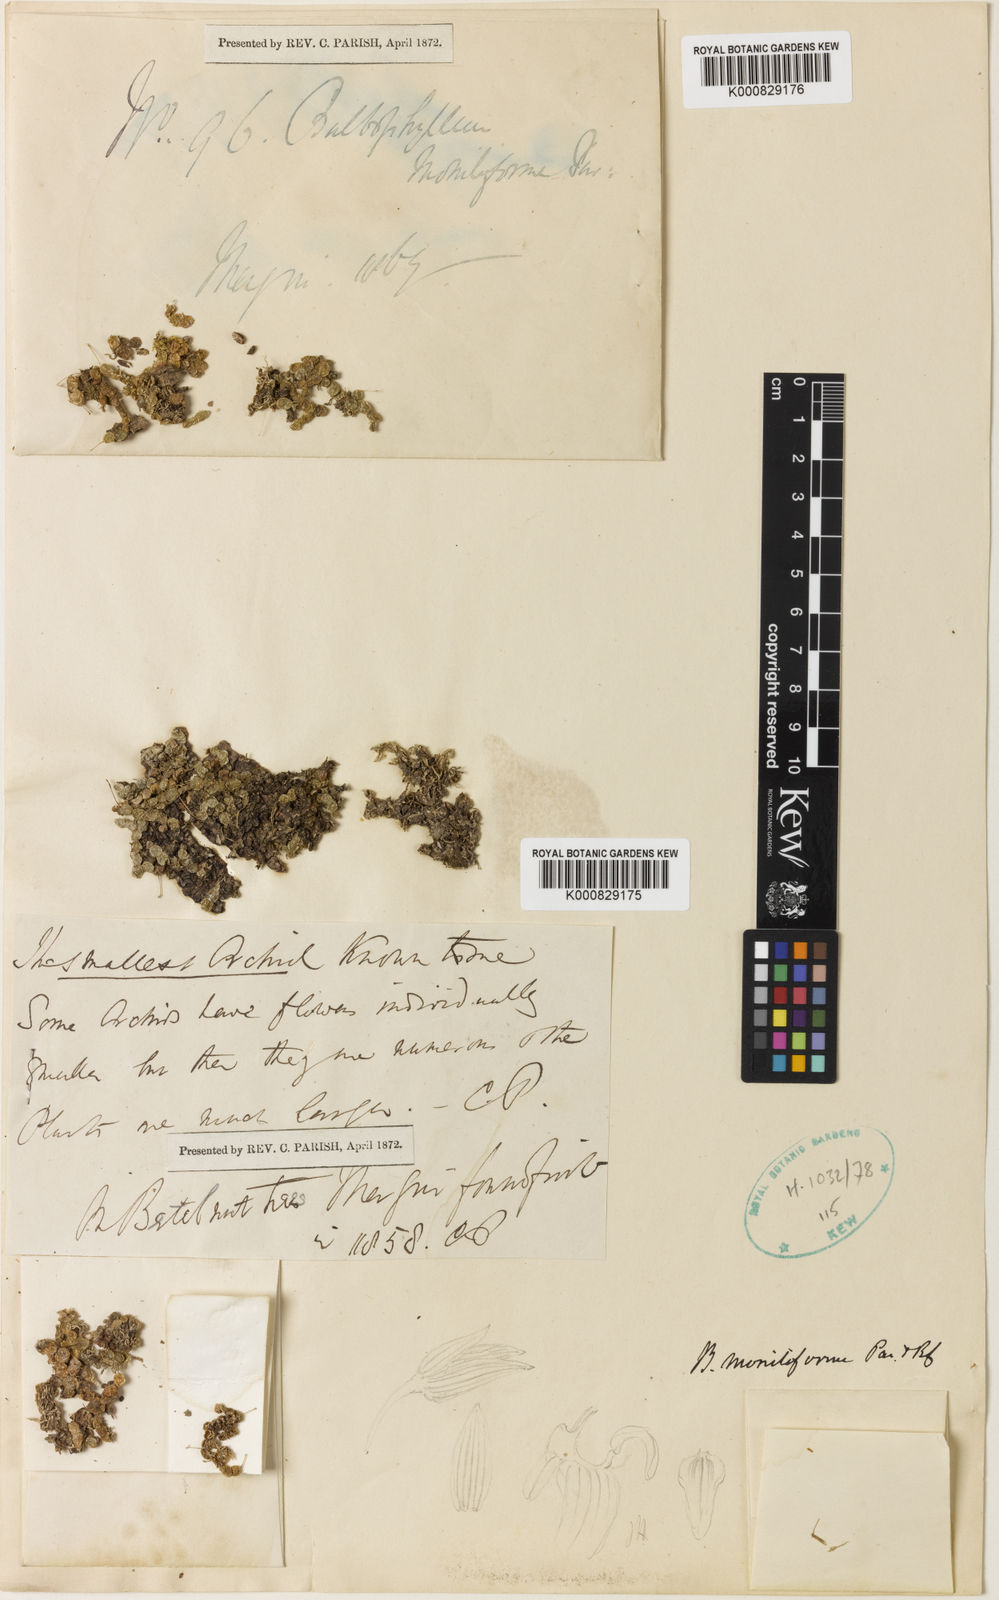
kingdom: Plantae
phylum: Tracheophyta
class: Liliopsida
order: Asparagales
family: Orchidaceae
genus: Bulbophyllum
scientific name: Bulbophyllum moniliforme
